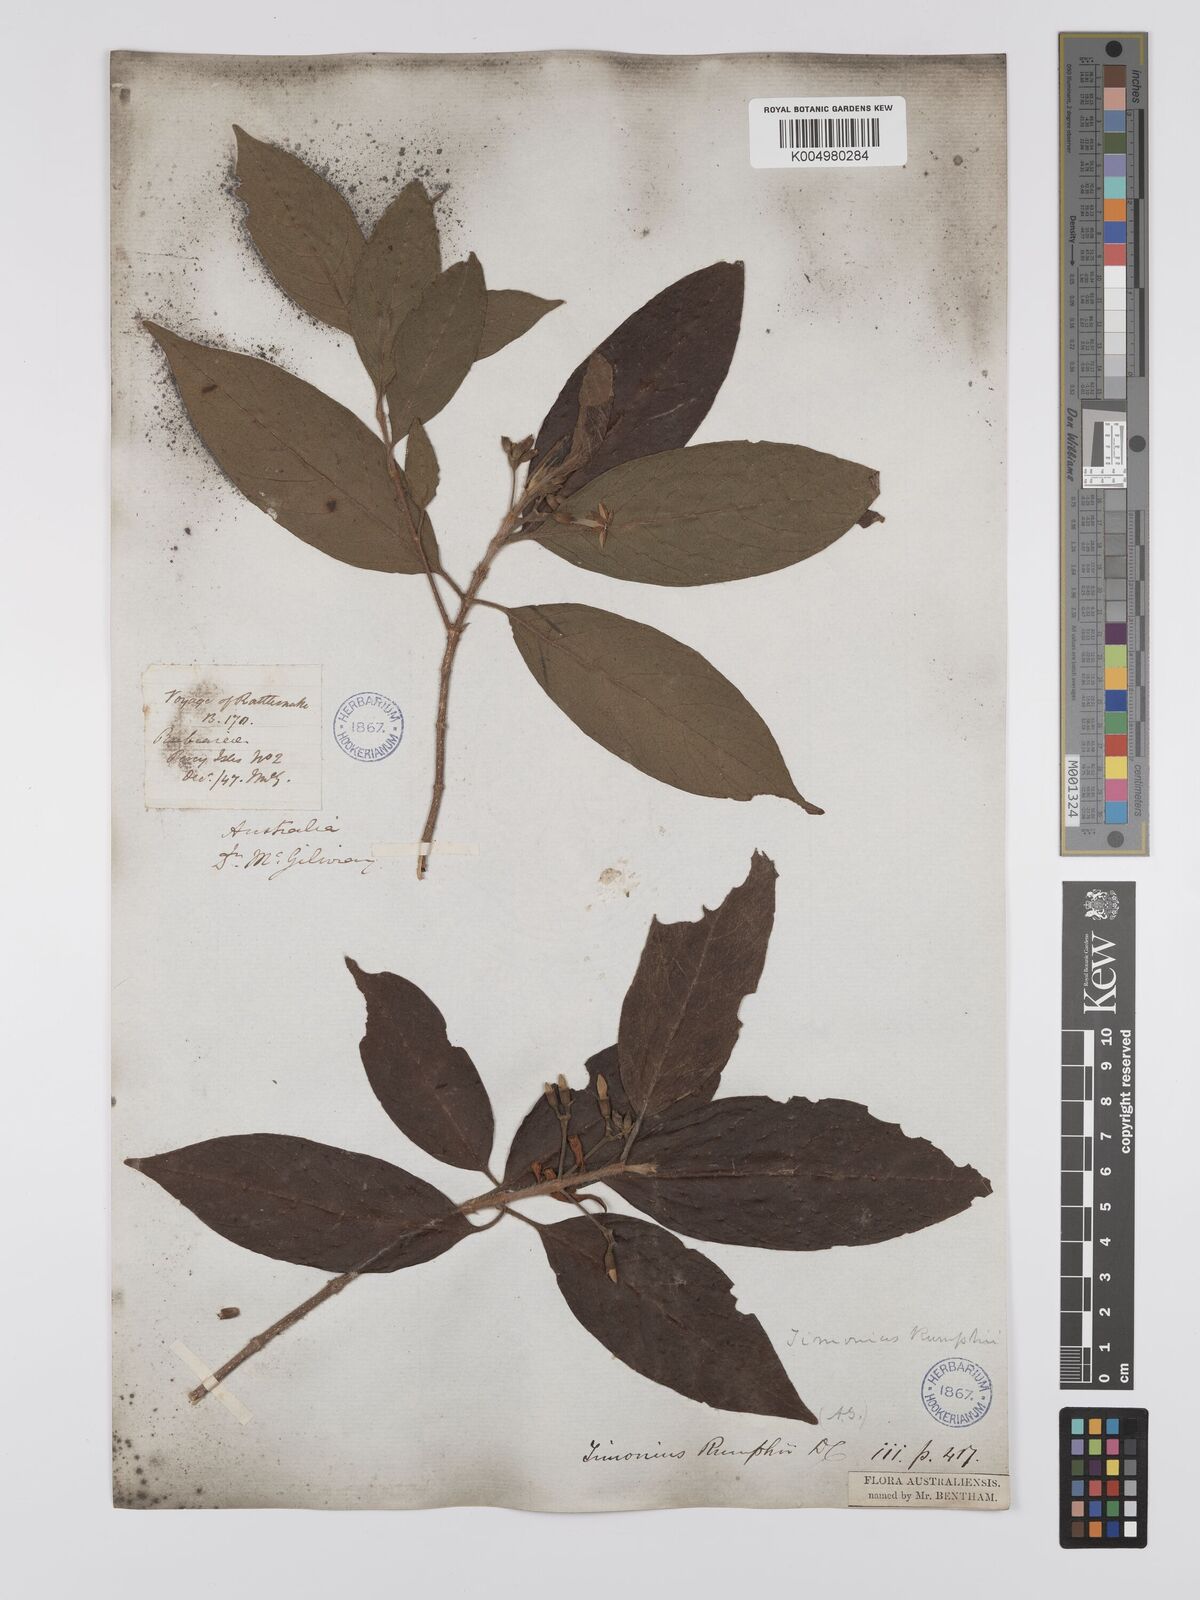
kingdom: Plantae
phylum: Tracheophyta
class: Magnoliopsida
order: Gentianales
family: Rubiaceae
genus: Timonius
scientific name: Timonius timon
